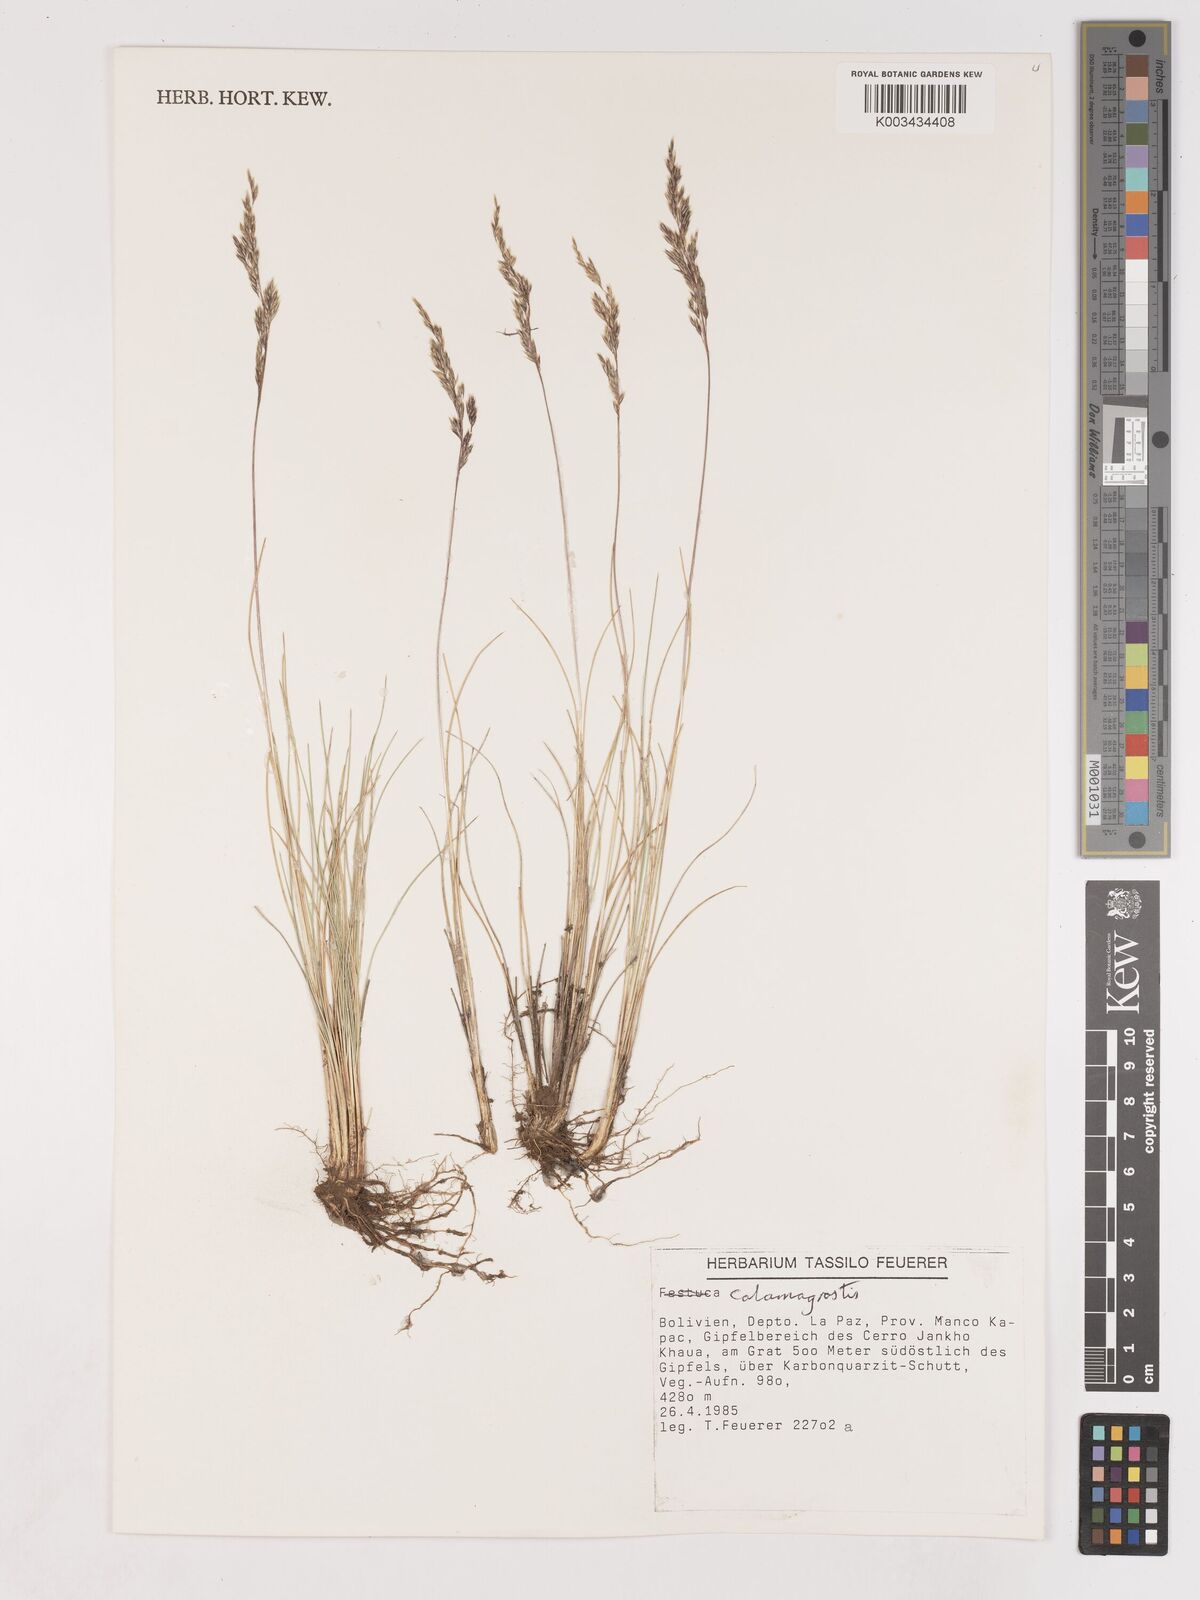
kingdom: Plantae
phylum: Tracheophyta
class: Liliopsida
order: Poales
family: Poaceae
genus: Cinnagrostis
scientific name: Cinnagrostis filifolia
